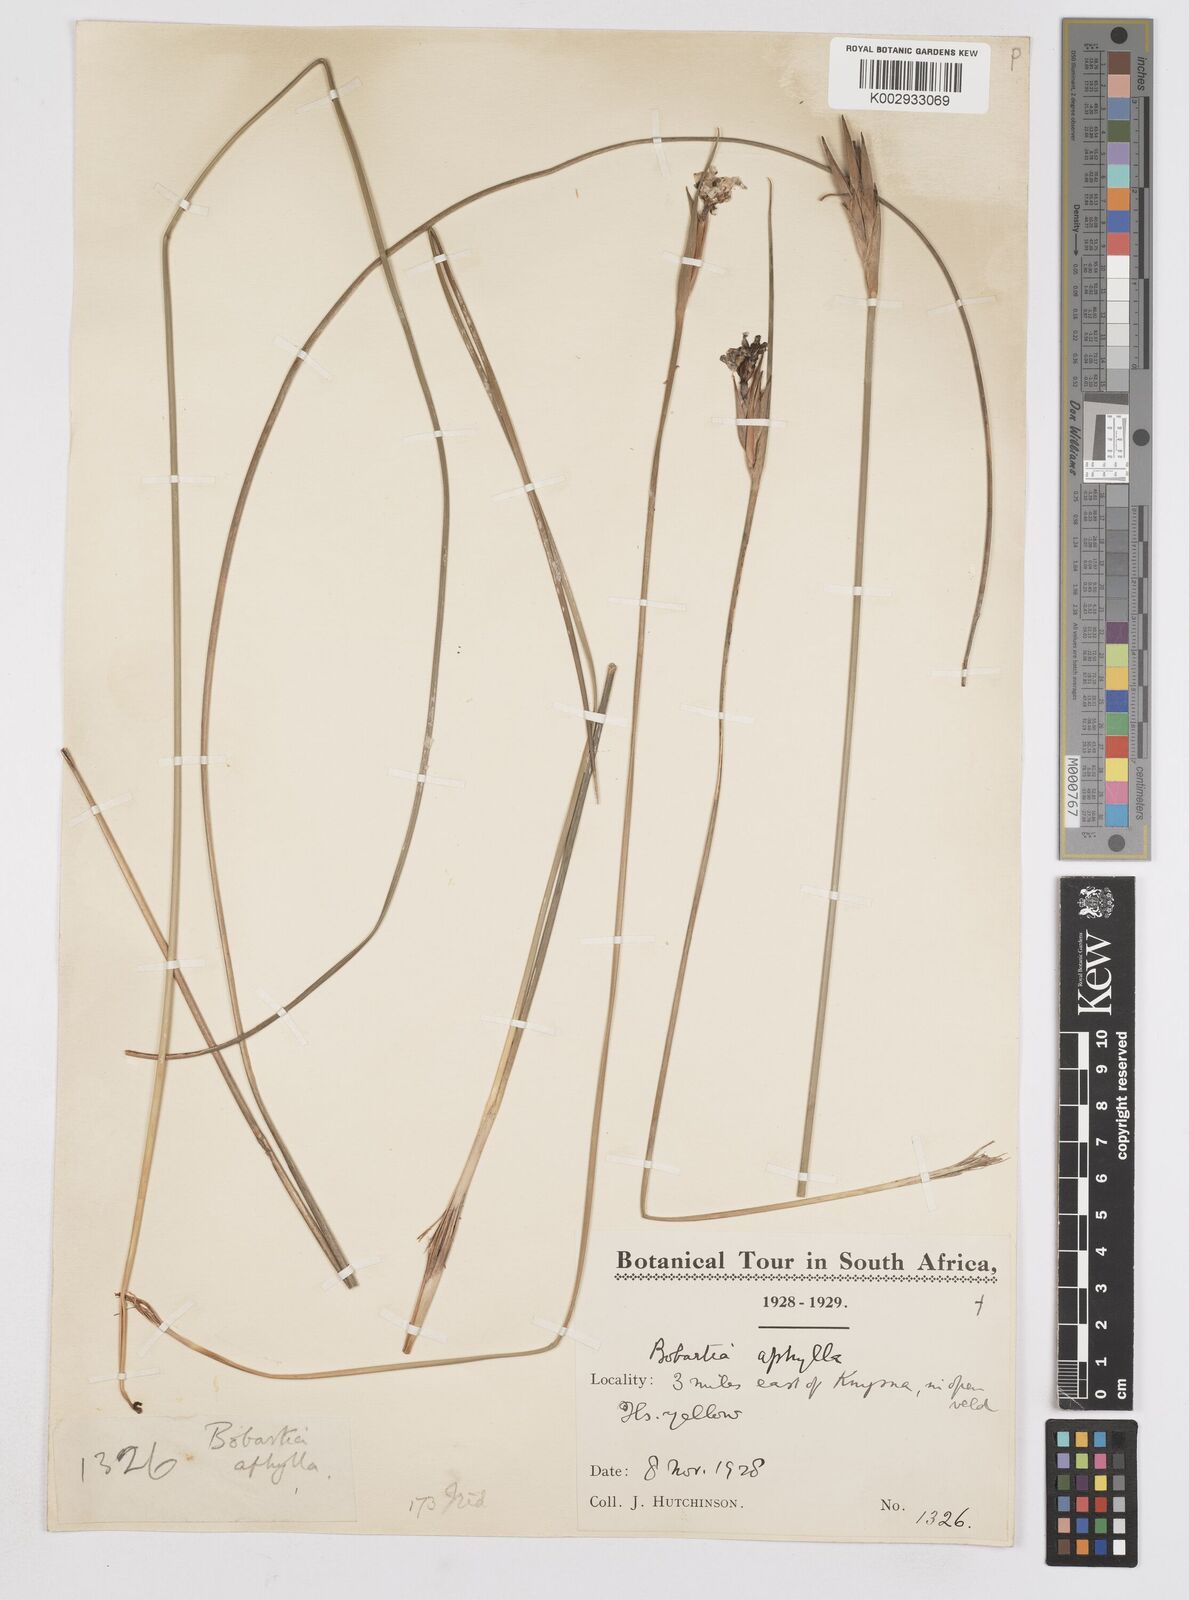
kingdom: Plantae
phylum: Tracheophyta
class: Liliopsida
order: Asparagales
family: Iridaceae
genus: Bobartia
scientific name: Bobartia aphylla
